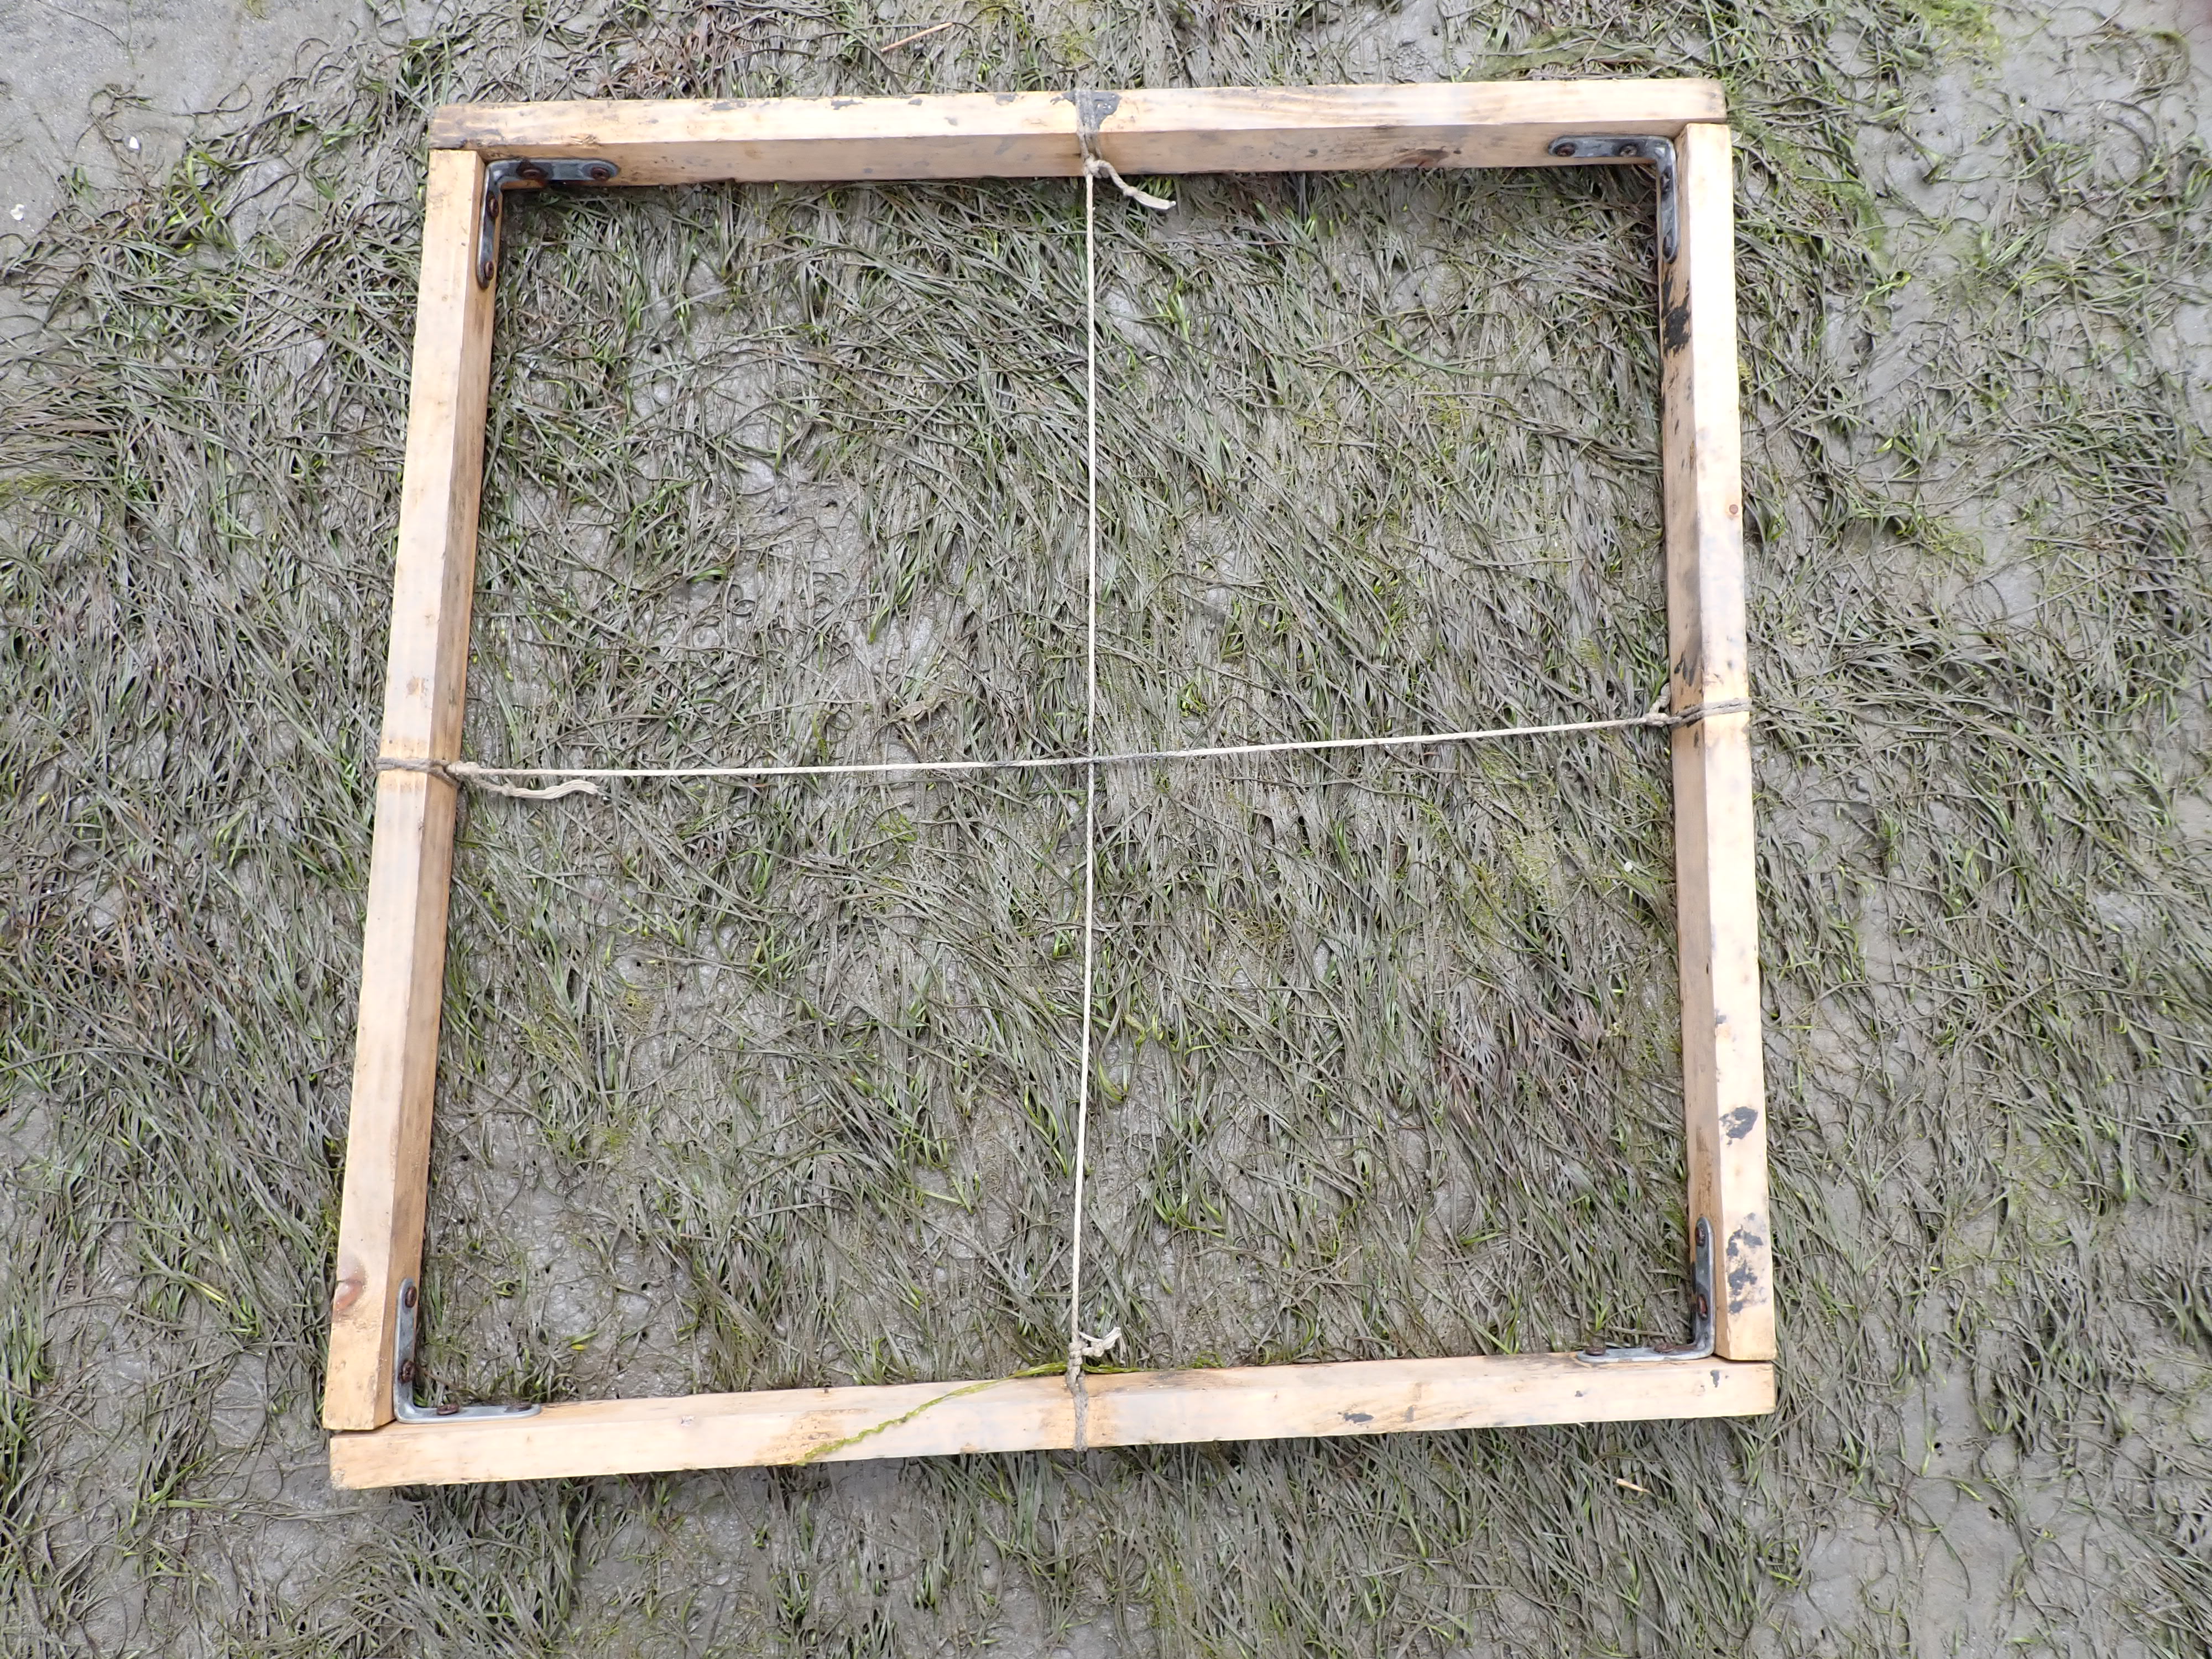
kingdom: Plantae
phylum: Tracheophyta
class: Liliopsida
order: Alismatales
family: Zosteraceae
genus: Zostera
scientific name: Zostera noltii
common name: Dwarf eelgrass
